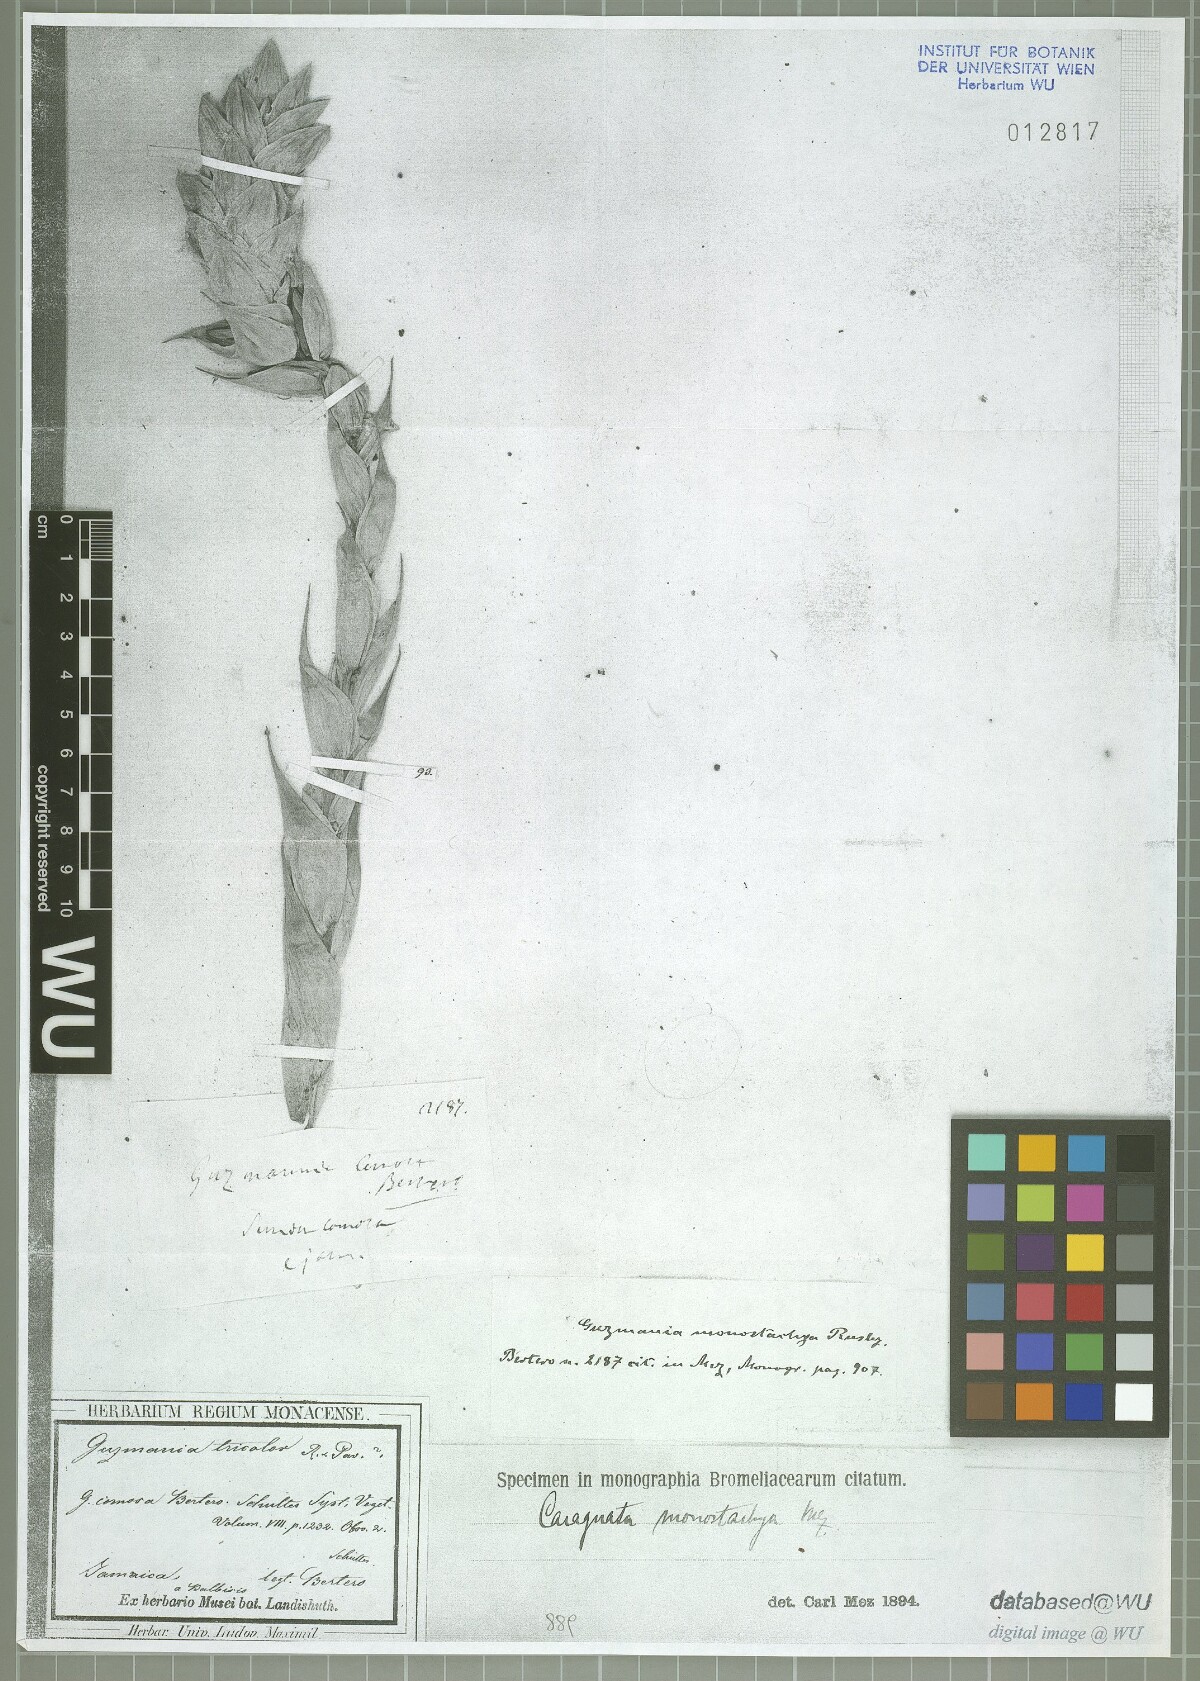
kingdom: Plantae
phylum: Tracheophyta
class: Liliopsida
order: Poales
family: Bromeliaceae
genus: Guzmania
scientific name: Guzmania monostachia
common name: West indian tufted airplant
